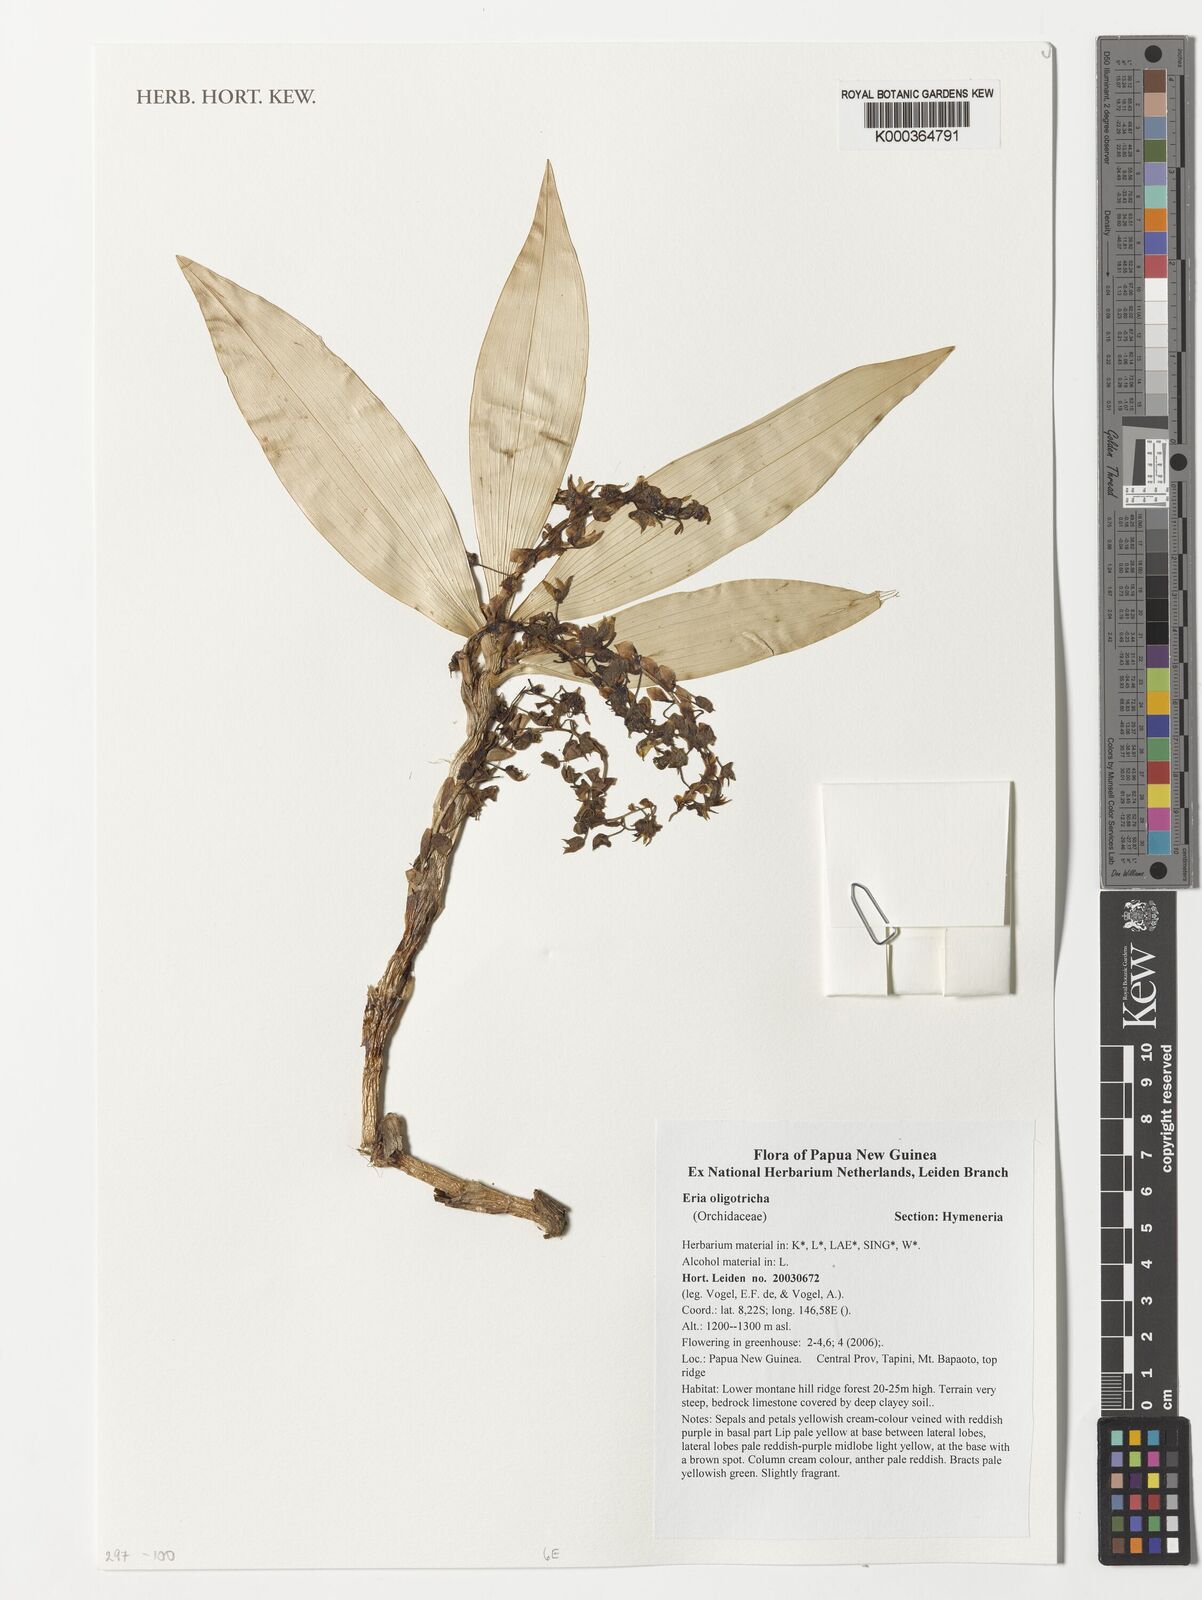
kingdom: Plantae
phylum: Tracheophyta
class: Liliopsida
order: Asparagales
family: Orchidaceae
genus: Pinalia
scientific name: Pinalia oligotricha
